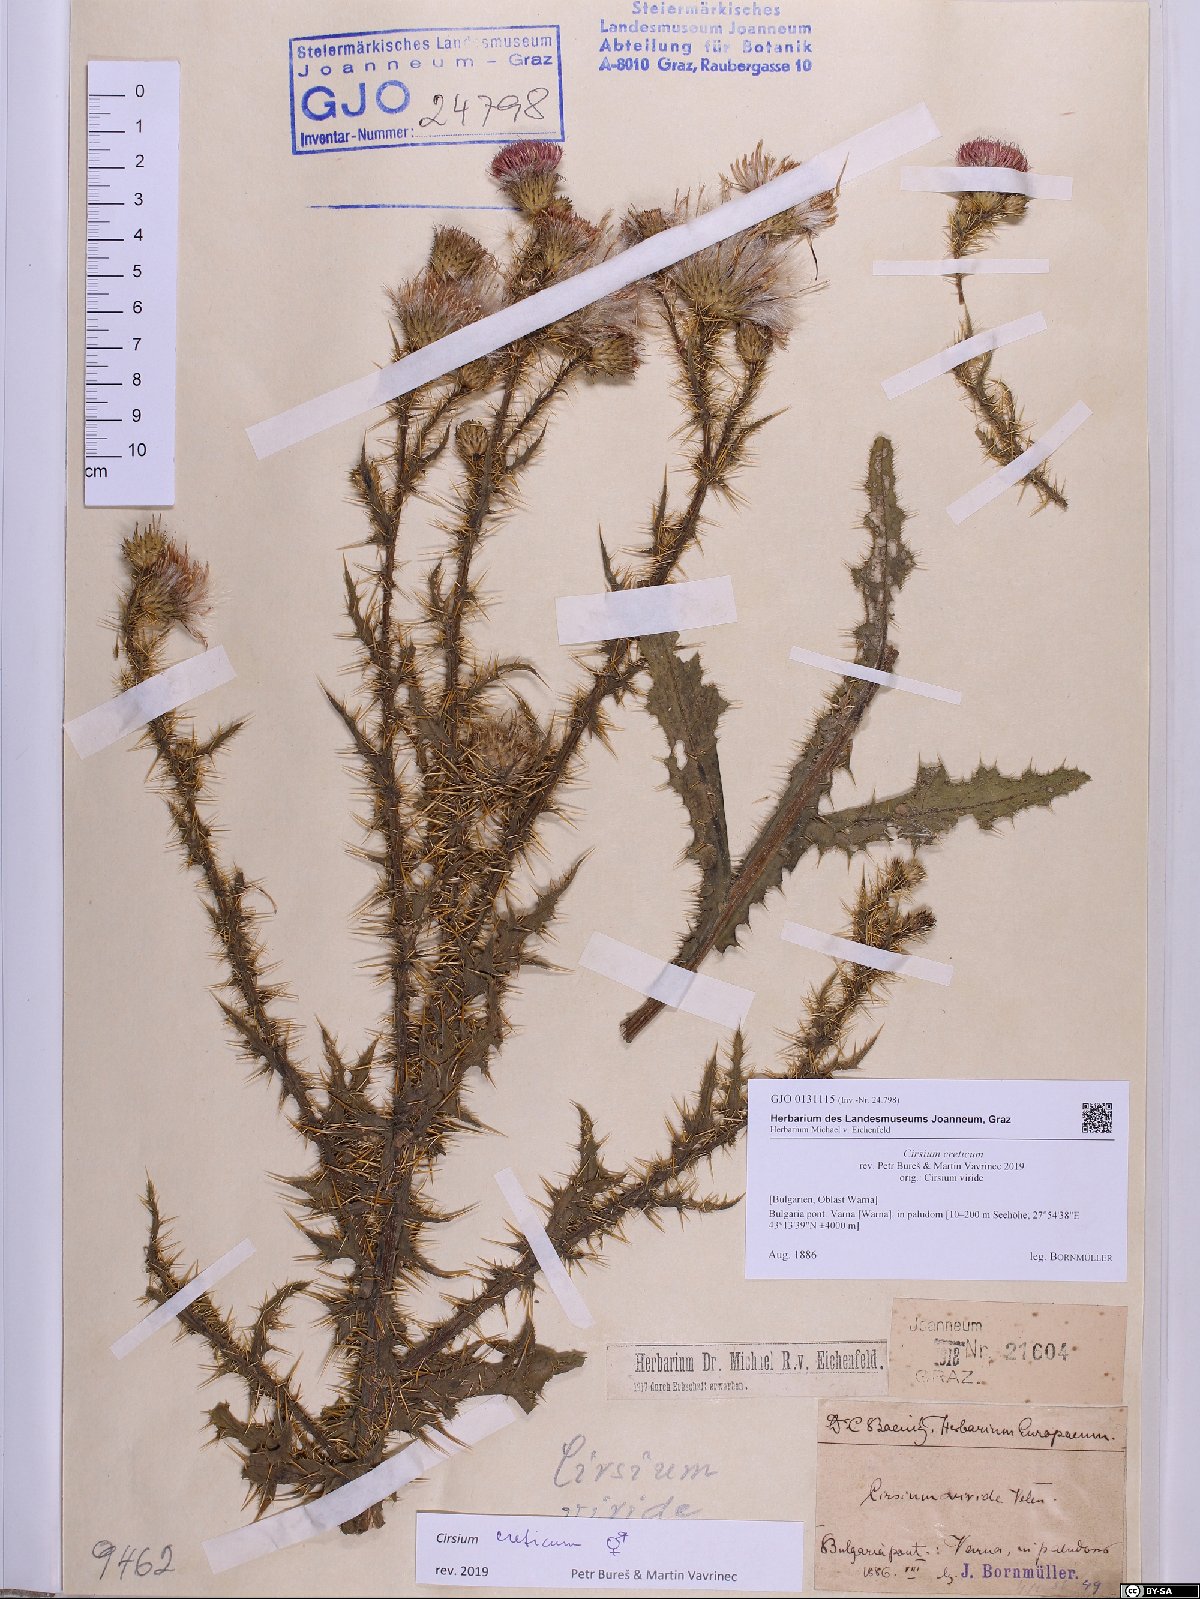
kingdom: Plantae
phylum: Tracheophyta
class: Magnoliopsida
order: Asterales
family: Asteraceae
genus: Cirsium
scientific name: Cirsium creticum
